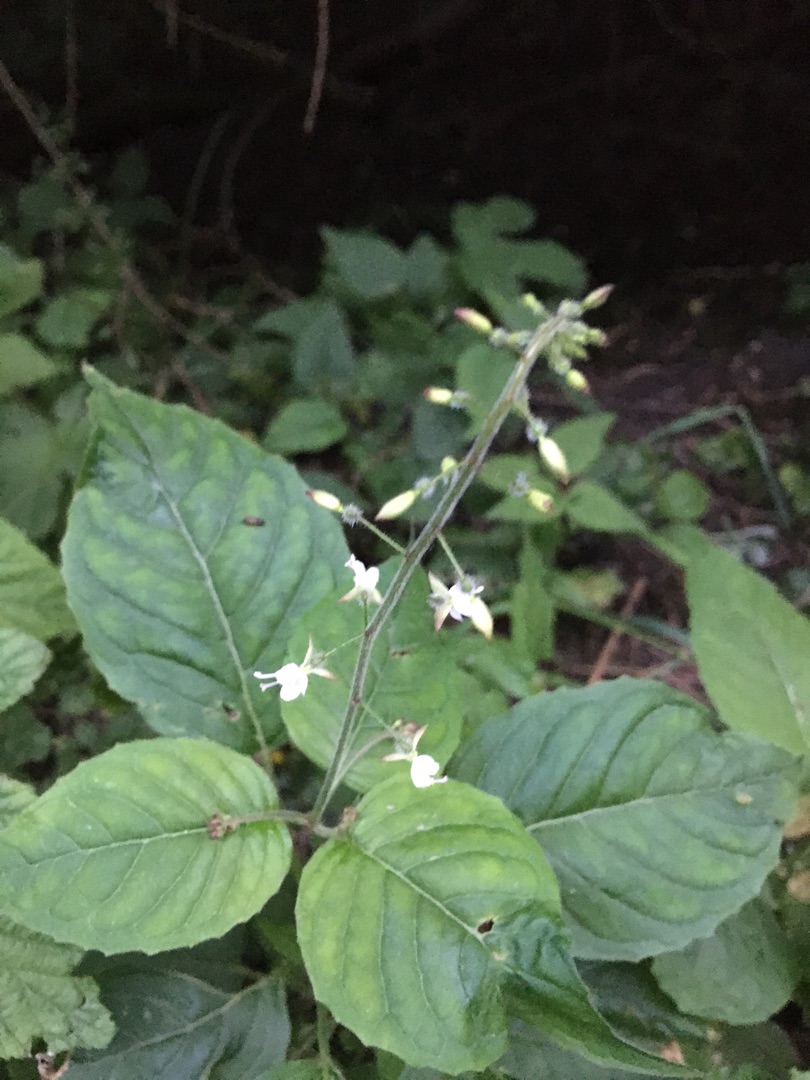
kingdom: Plantae
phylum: Tracheophyta
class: Magnoliopsida
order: Myrtales
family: Onagraceae
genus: Circaea
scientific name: Circaea lutetiana
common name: Dunet steffensurt
